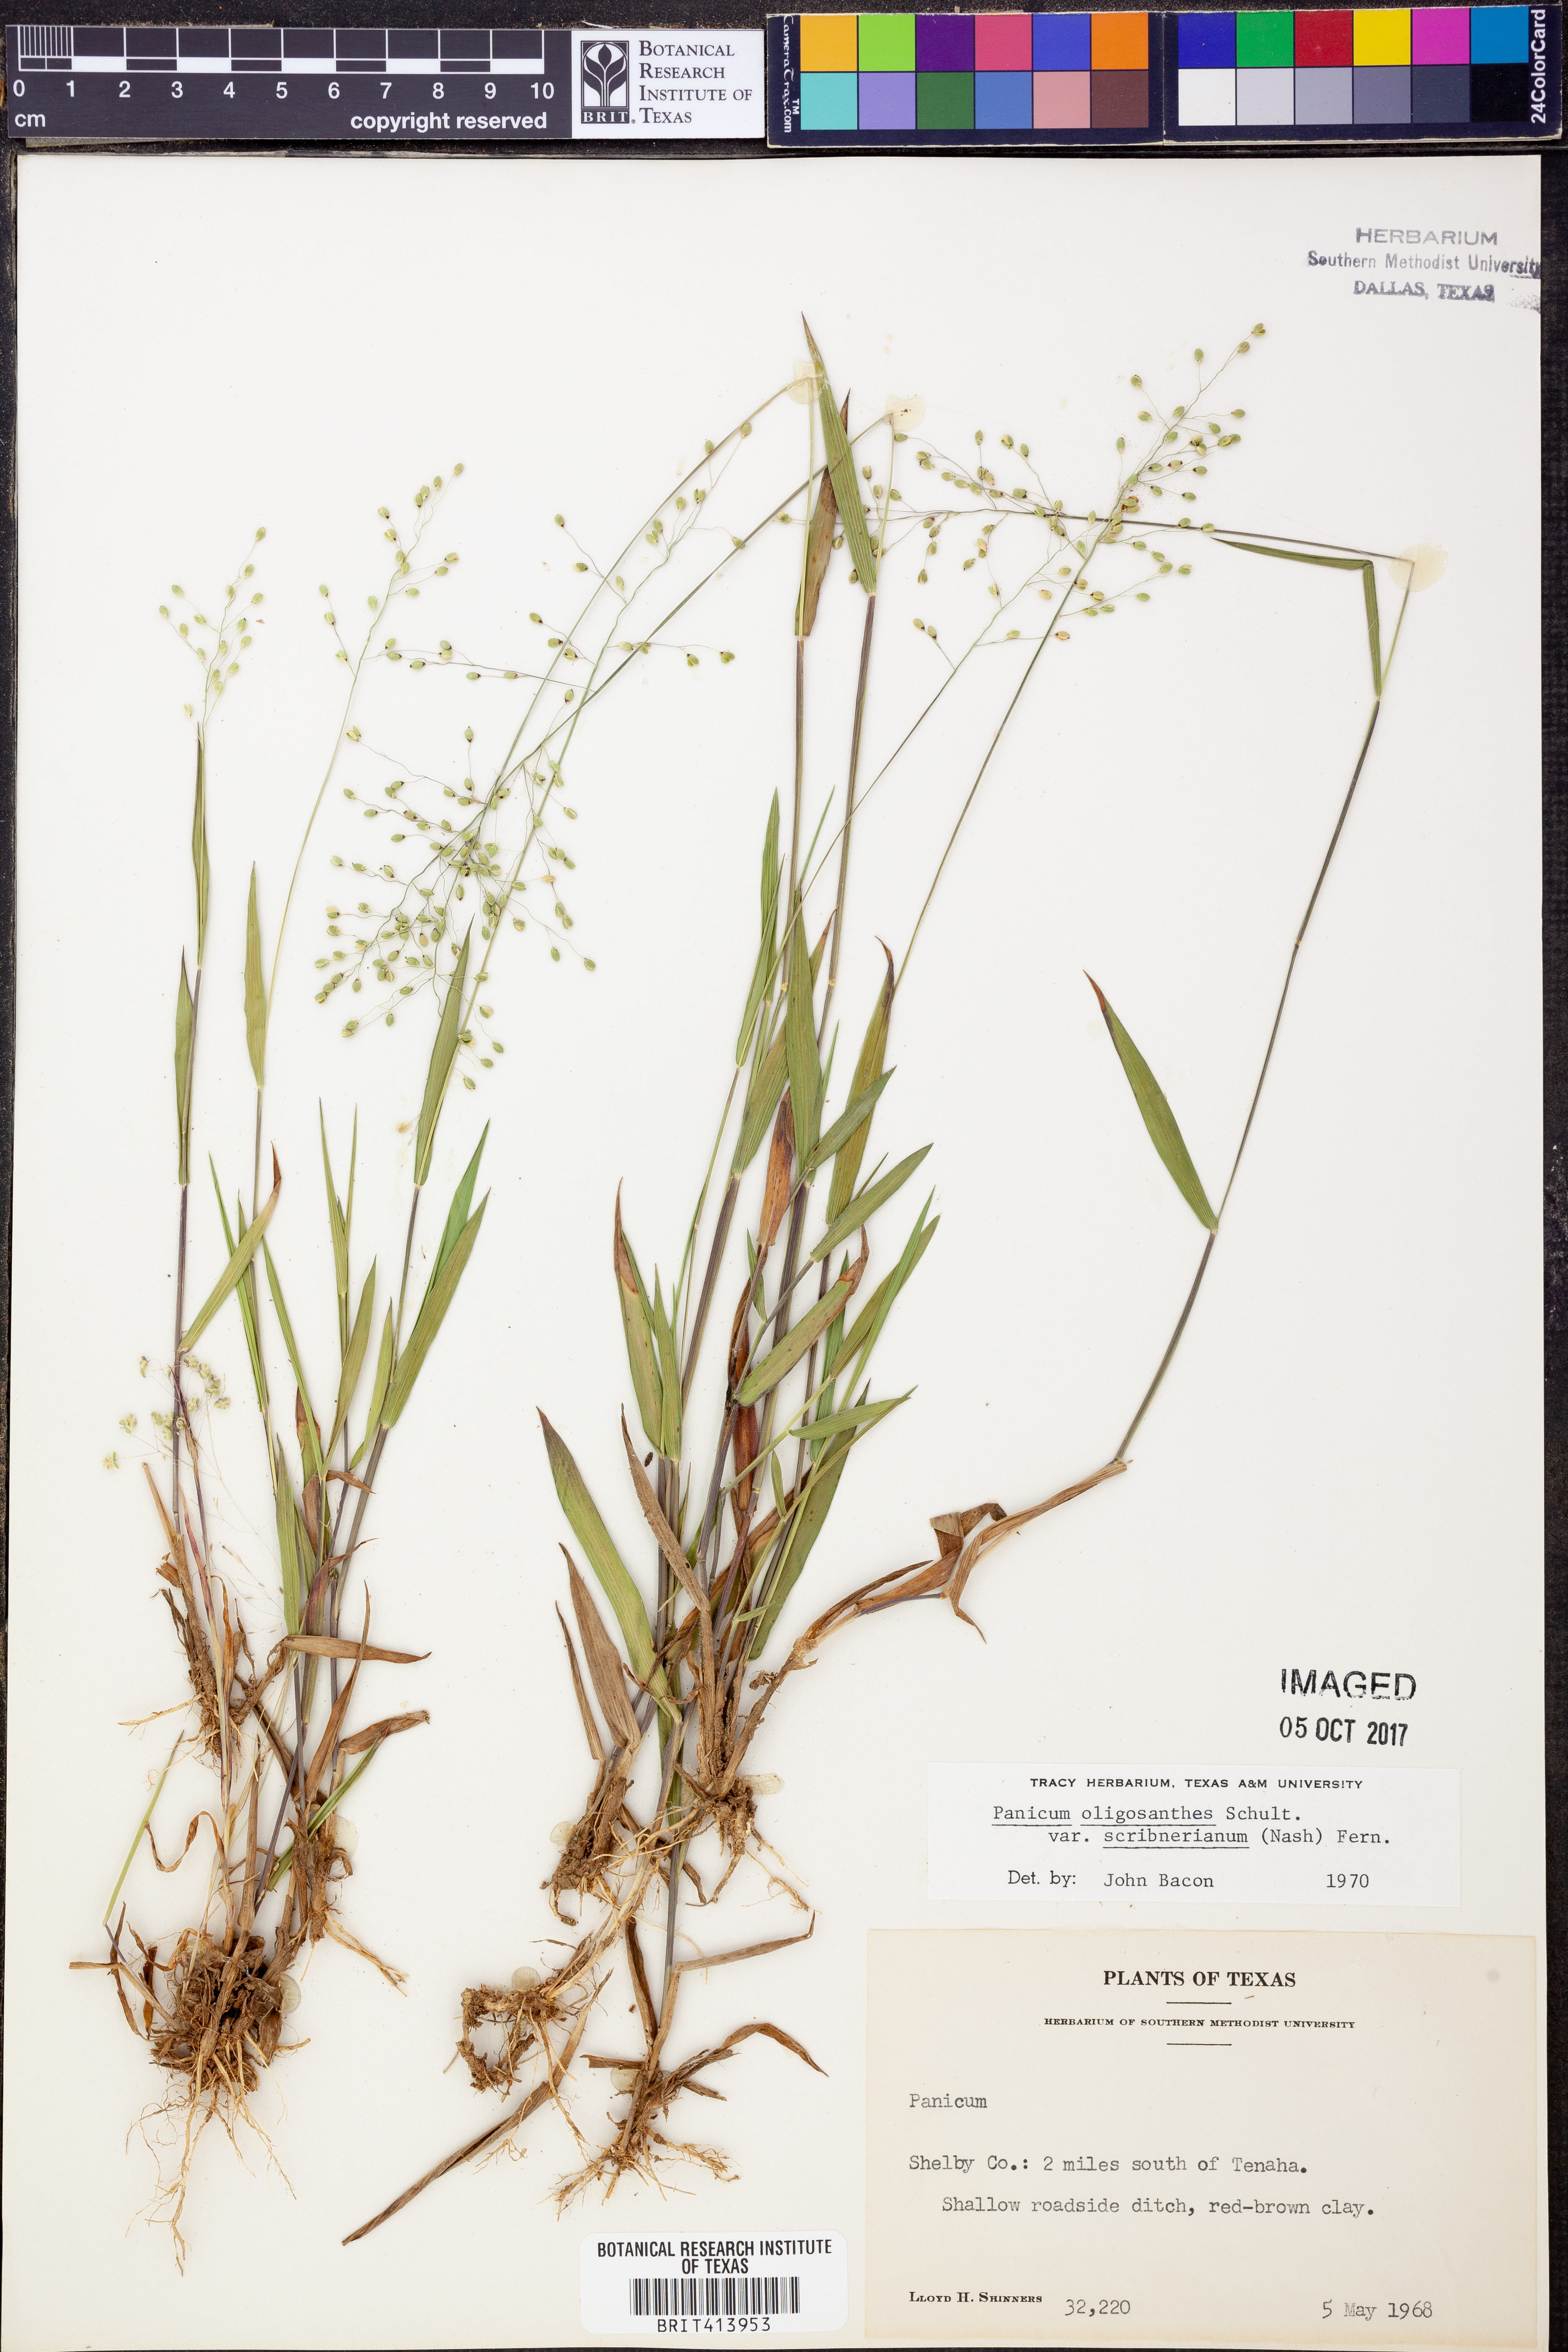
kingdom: Plantae
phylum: Tracheophyta
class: Liliopsida
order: Poales
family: Poaceae
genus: Dichanthelium
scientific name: Dichanthelium scribnerianum
